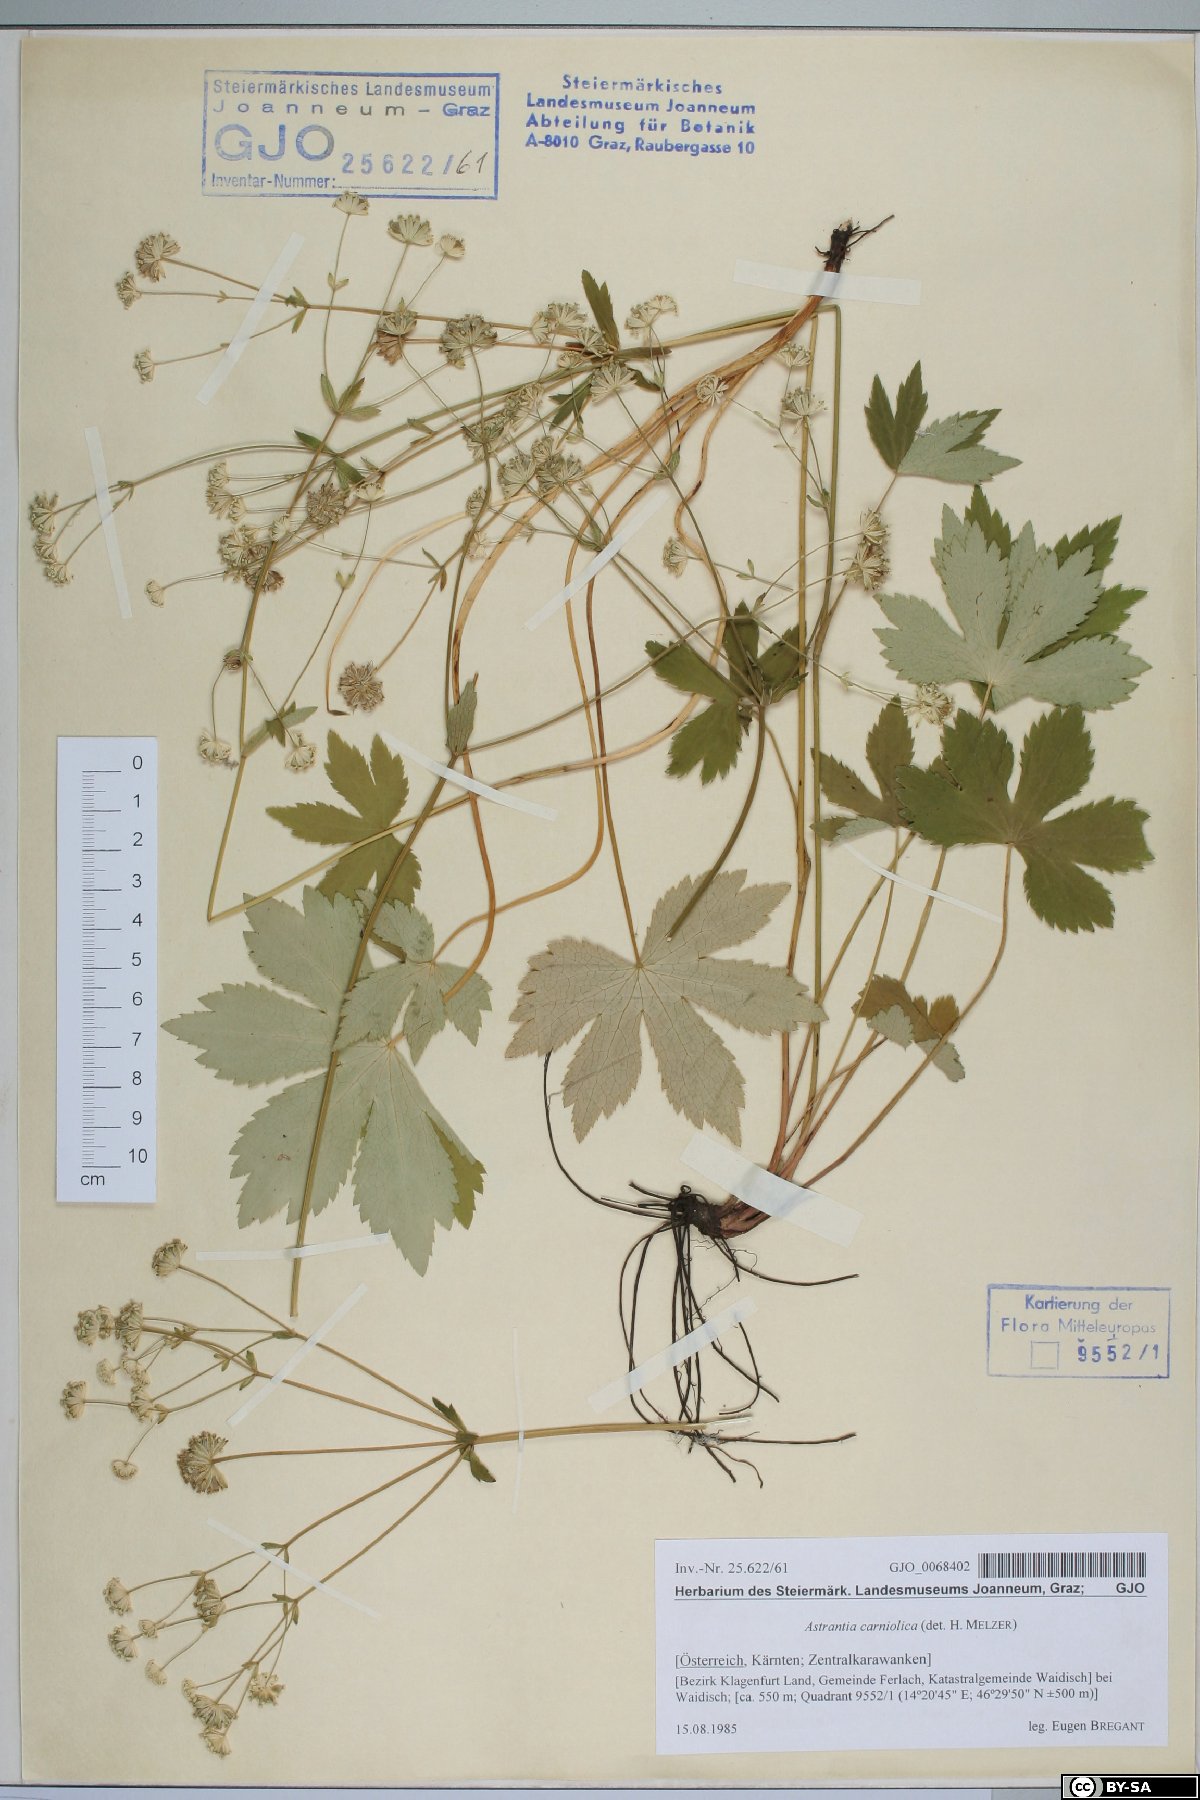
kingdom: Plantae
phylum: Tracheophyta
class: Magnoliopsida
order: Apiales
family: Apiaceae
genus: Astrantia
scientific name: Astrantia carniolica
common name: Carnic masterwort
